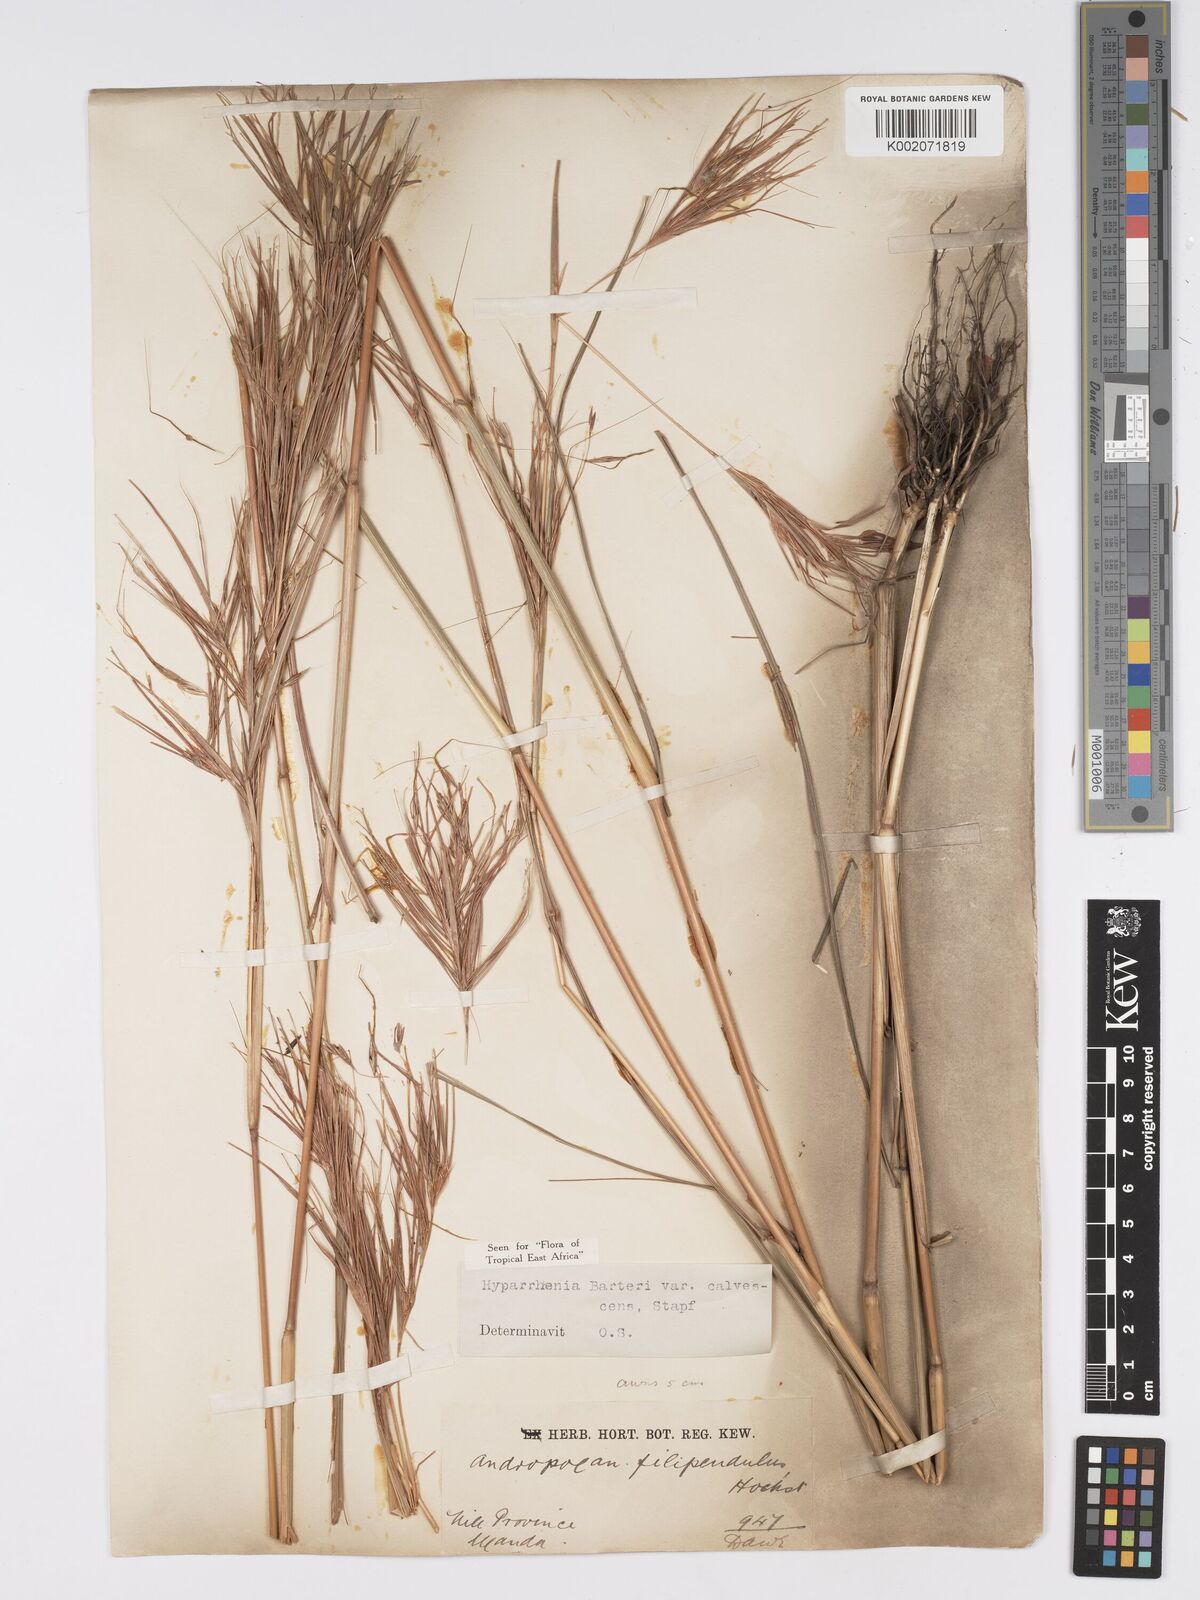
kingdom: Plantae
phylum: Tracheophyta
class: Liliopsida
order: Poales
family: Poaceae
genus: Hyparrhenia
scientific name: Hyparrhenia figariana
